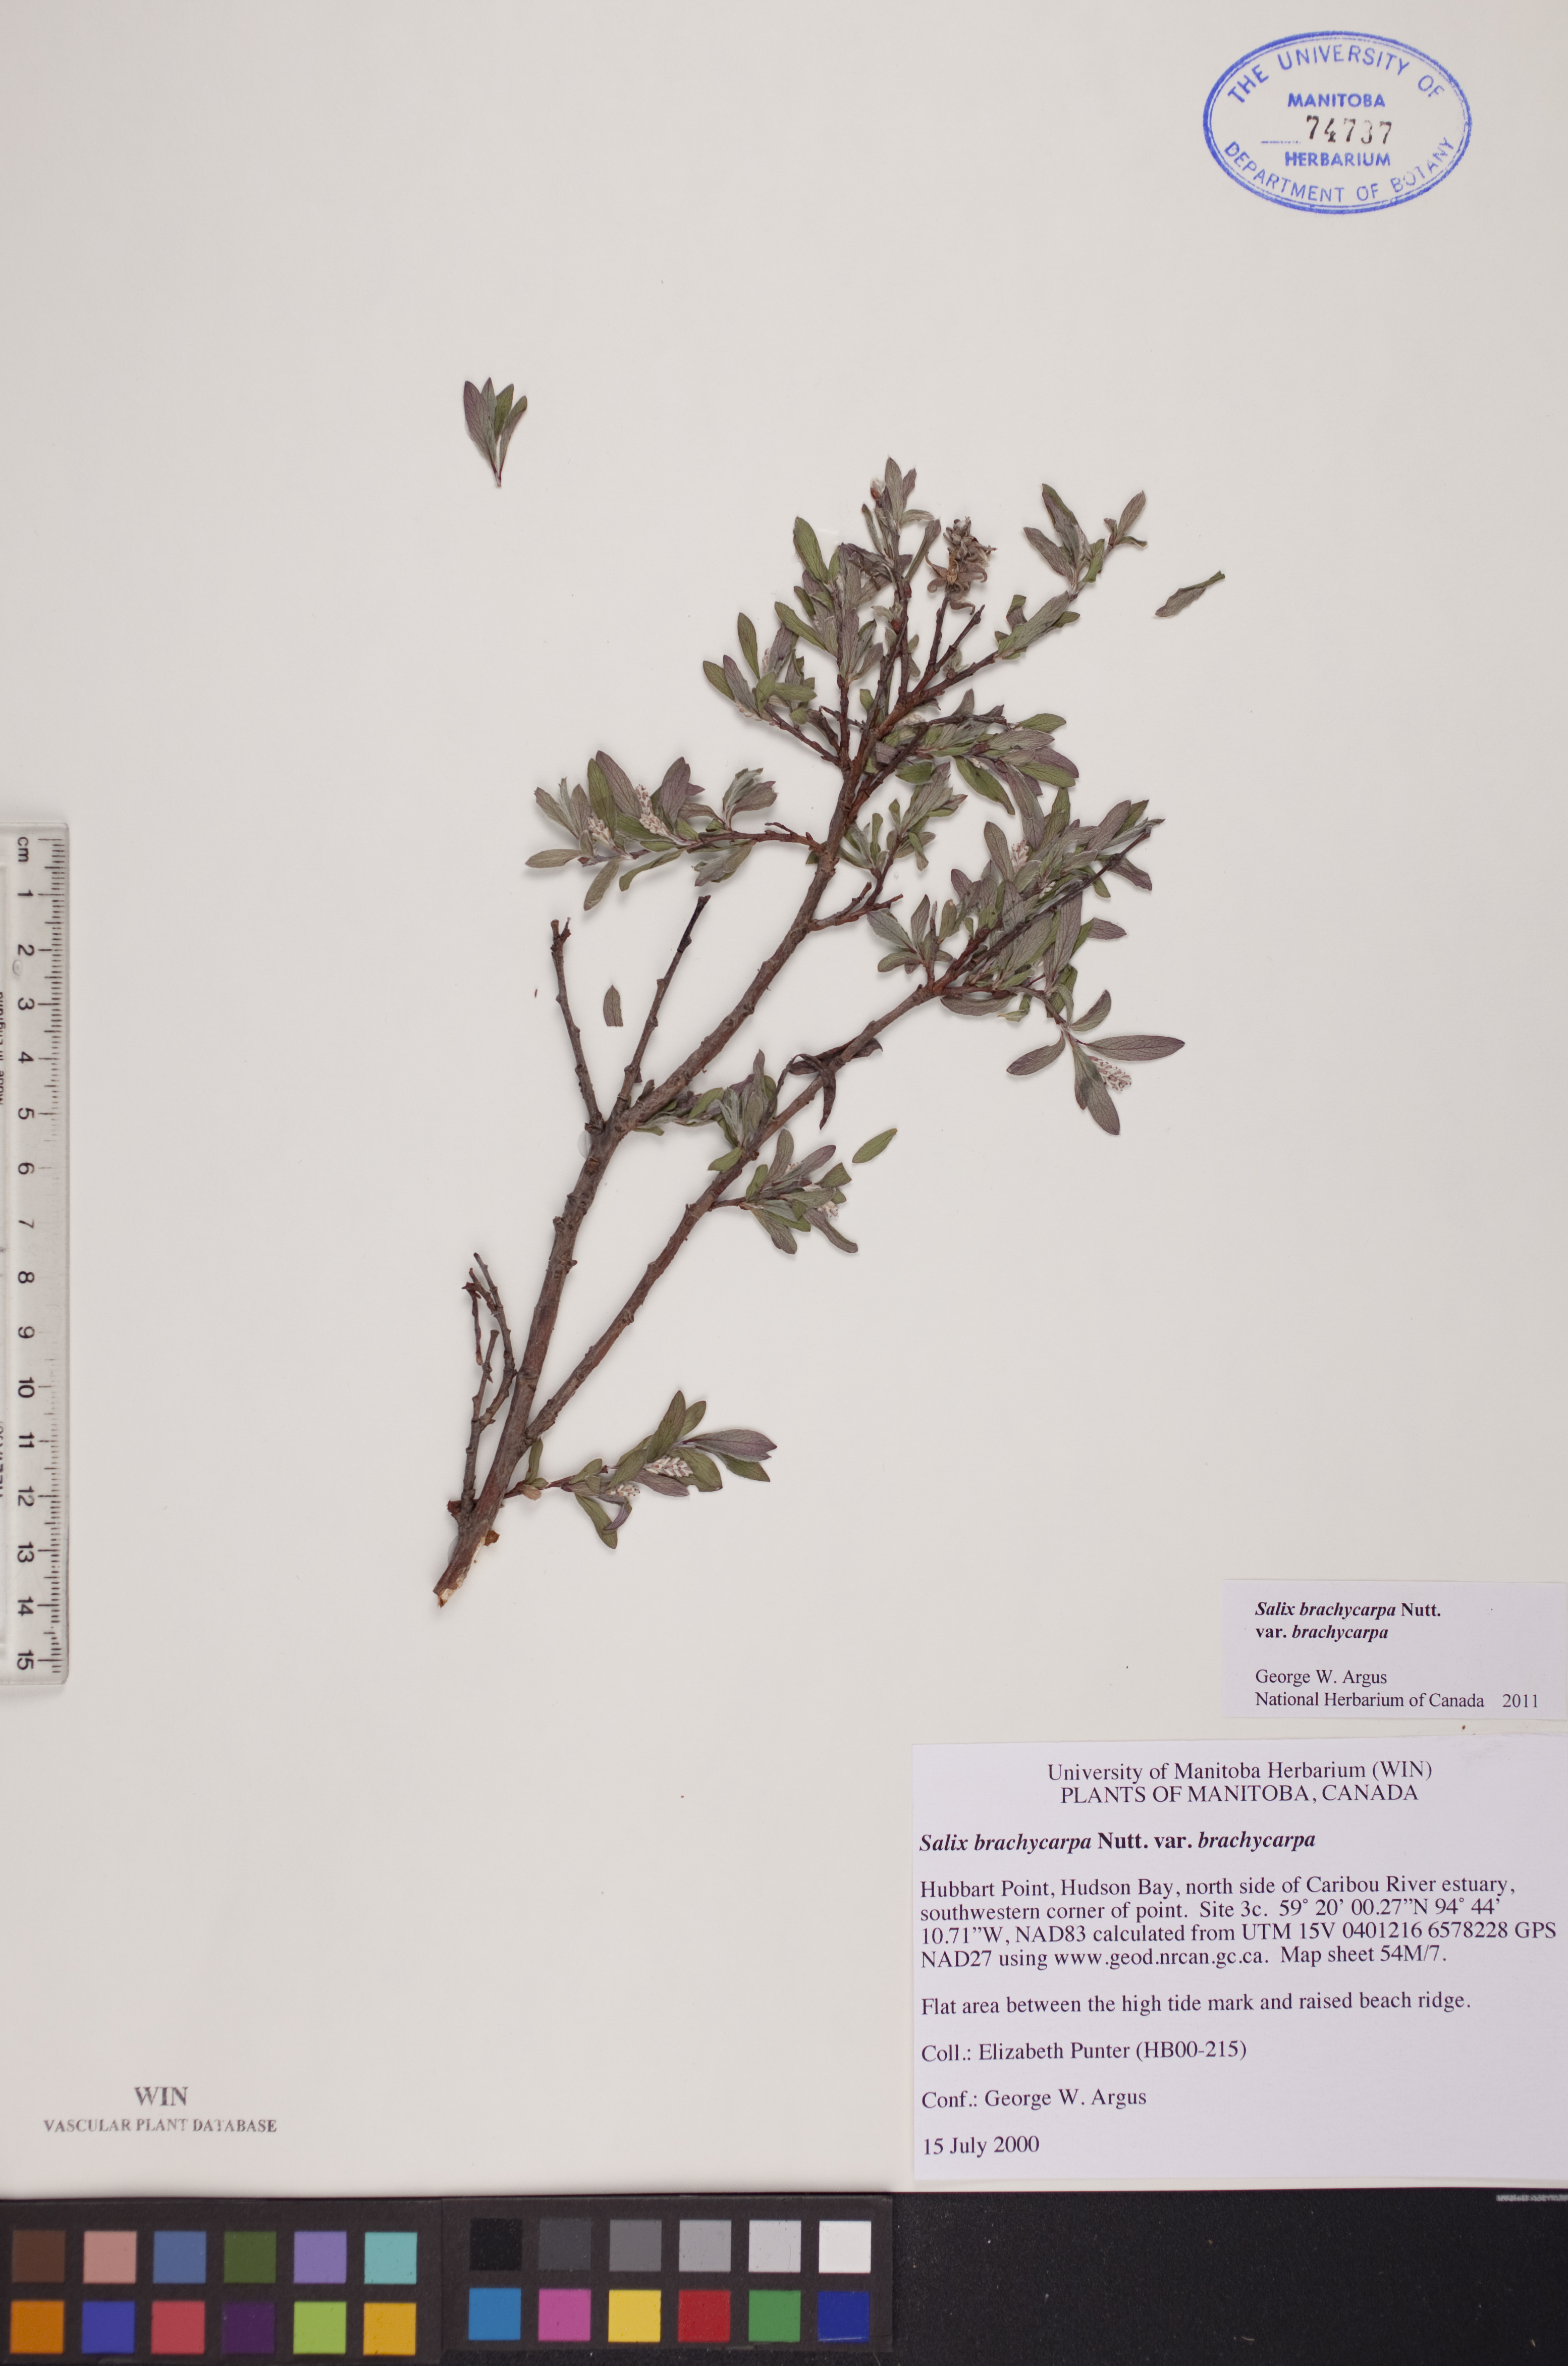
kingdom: Plantae
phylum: Tracheophyta
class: Magnoliopsida
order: Malpighiales
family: Salicaceae
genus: Salix
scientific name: Salix brachycarpa
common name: Barren-ground willow
